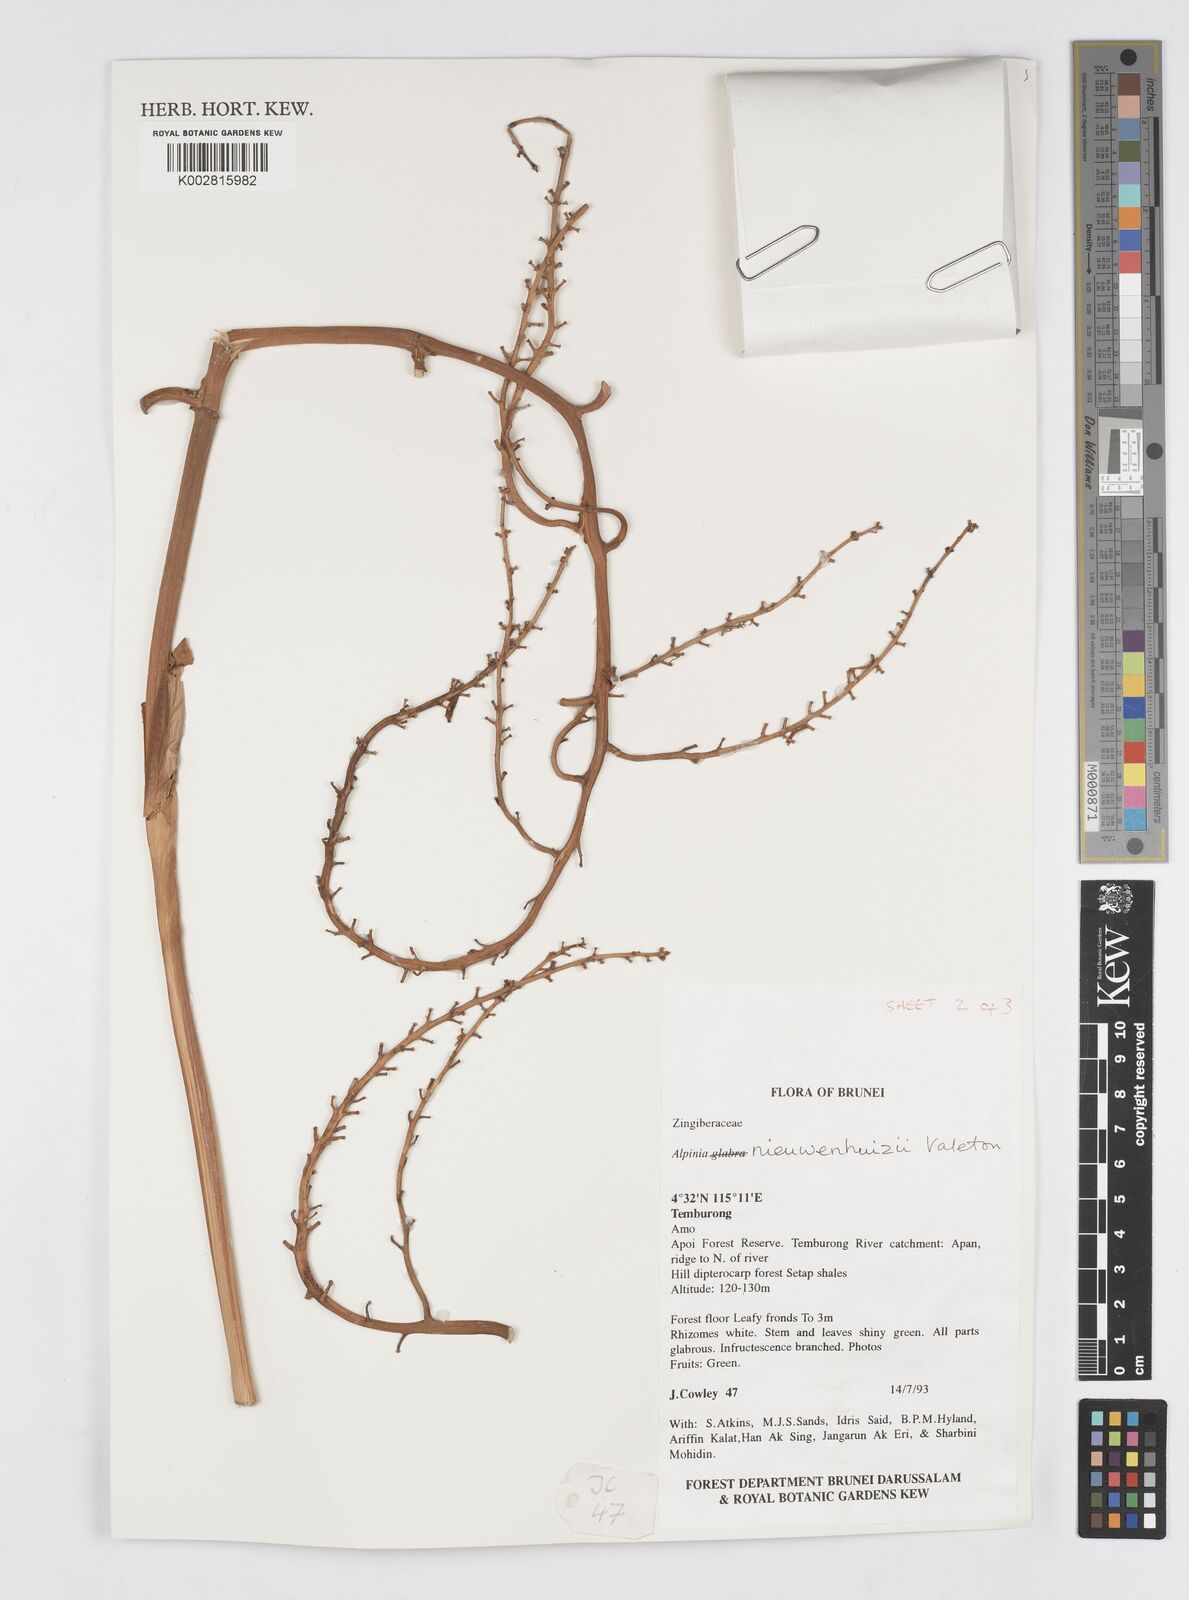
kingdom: Plantae
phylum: Tracheophyta
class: Liliopsida
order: Zingiberales
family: Zingiberaceae
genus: Alpinia
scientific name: Alpinia nieuwenhuizii
